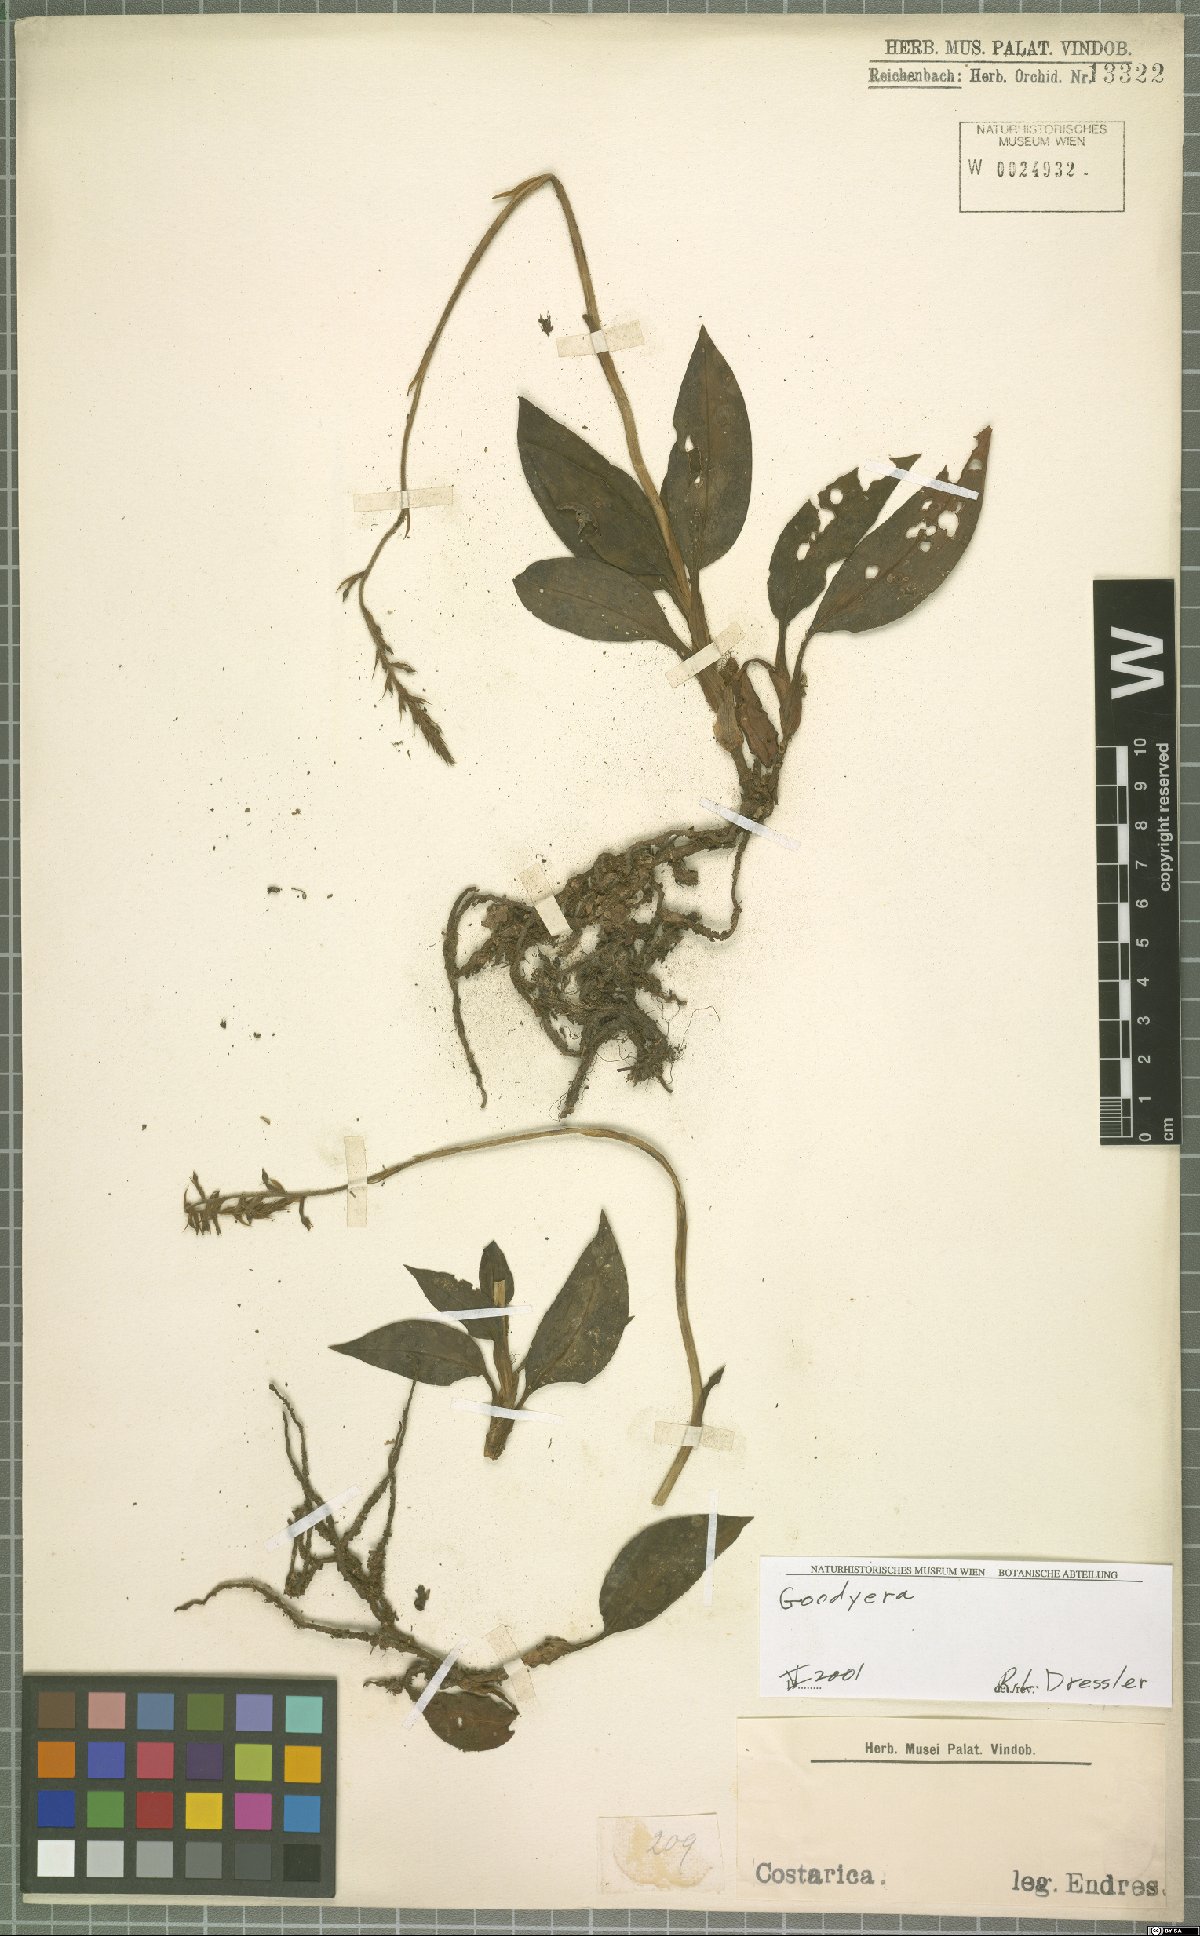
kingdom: Plantae
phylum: Tracheophyta
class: Liliopsida
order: Asparagales
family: Orchidaceae
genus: Goodyera
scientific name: Goodyera
